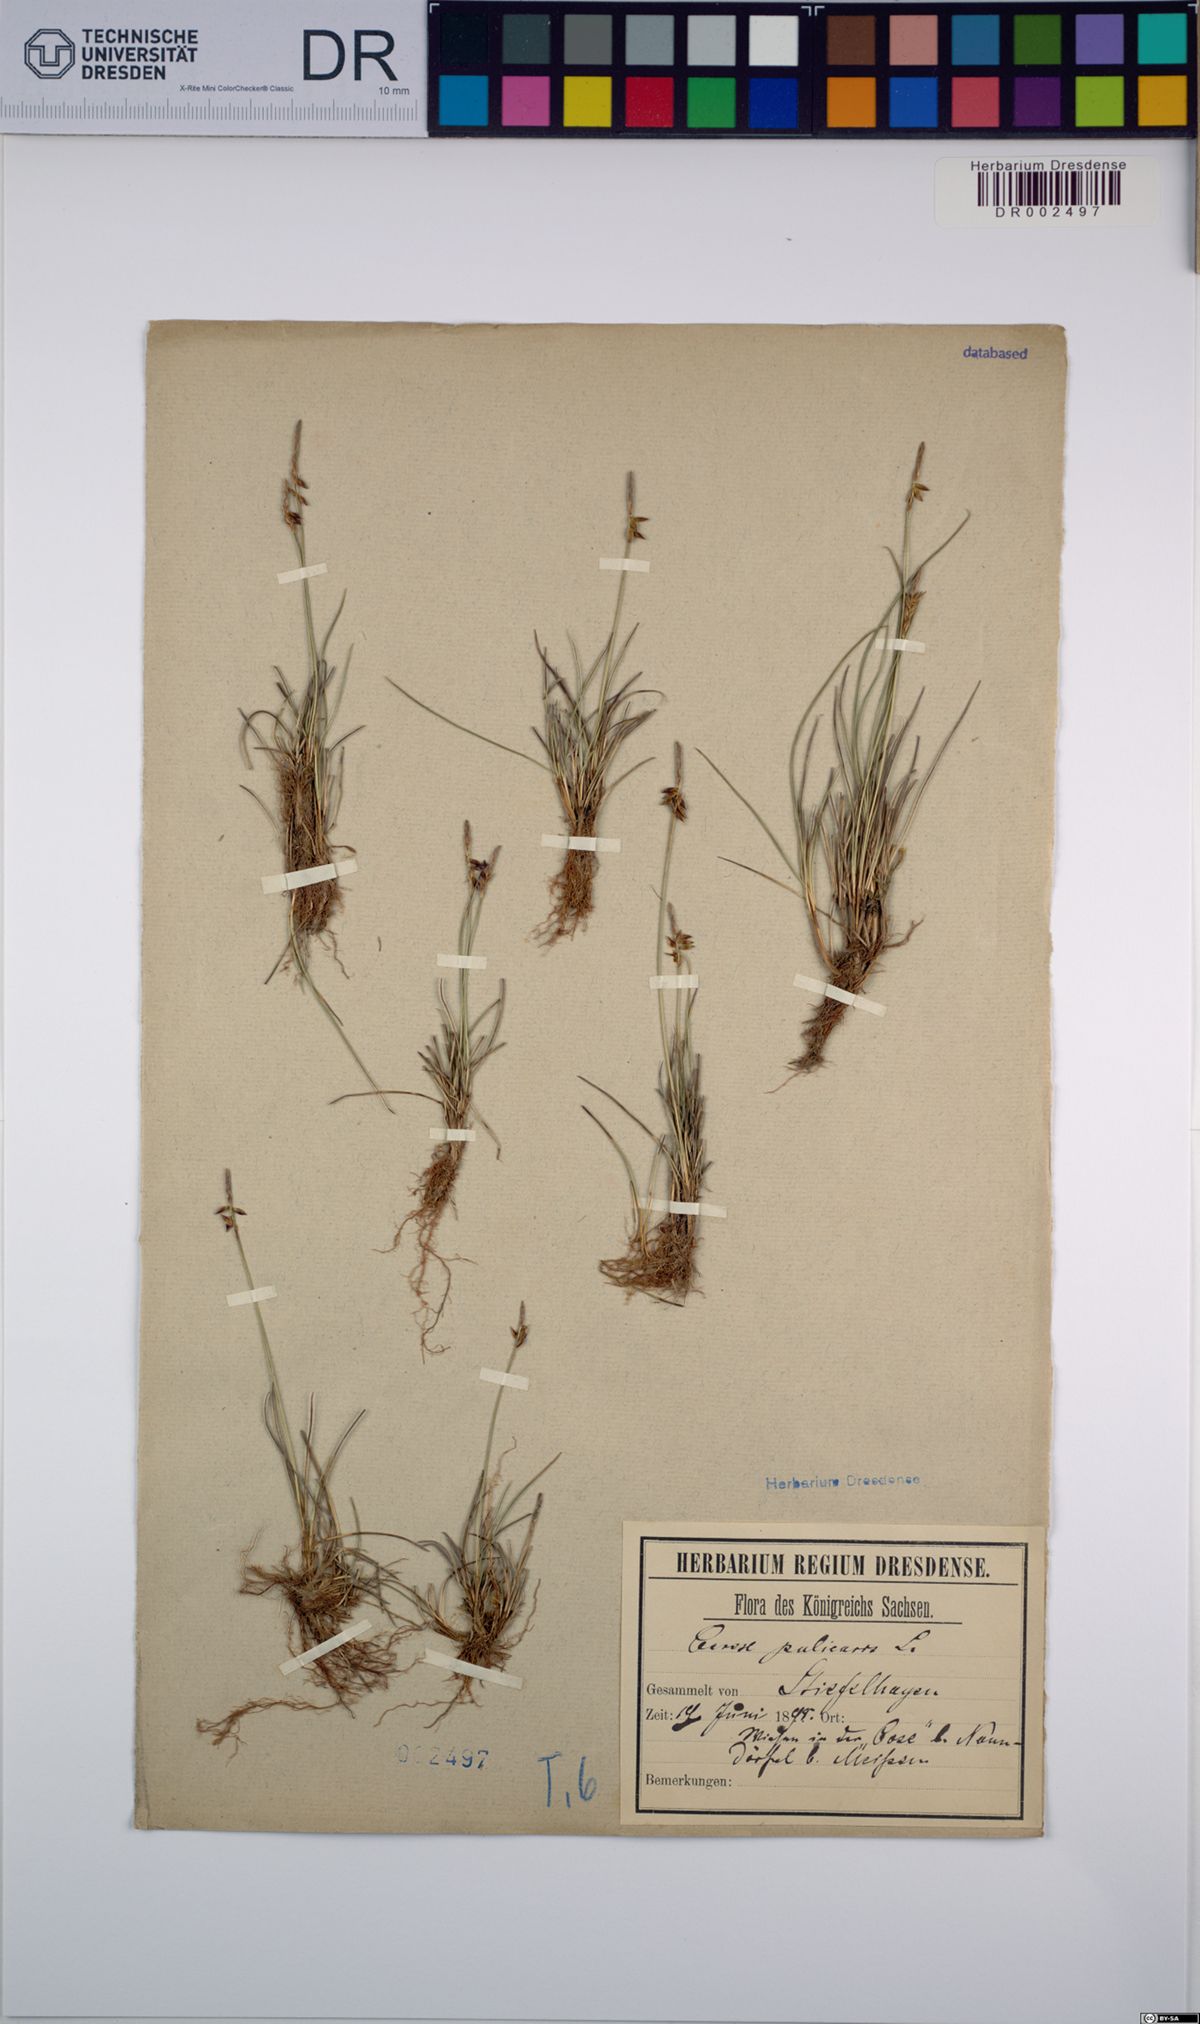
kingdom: Plantae
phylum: Tracheophyta
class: Liliopsida
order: Poales
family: Cyperaceae
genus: Carex
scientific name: Carex pulicaris
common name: Flea sedge
